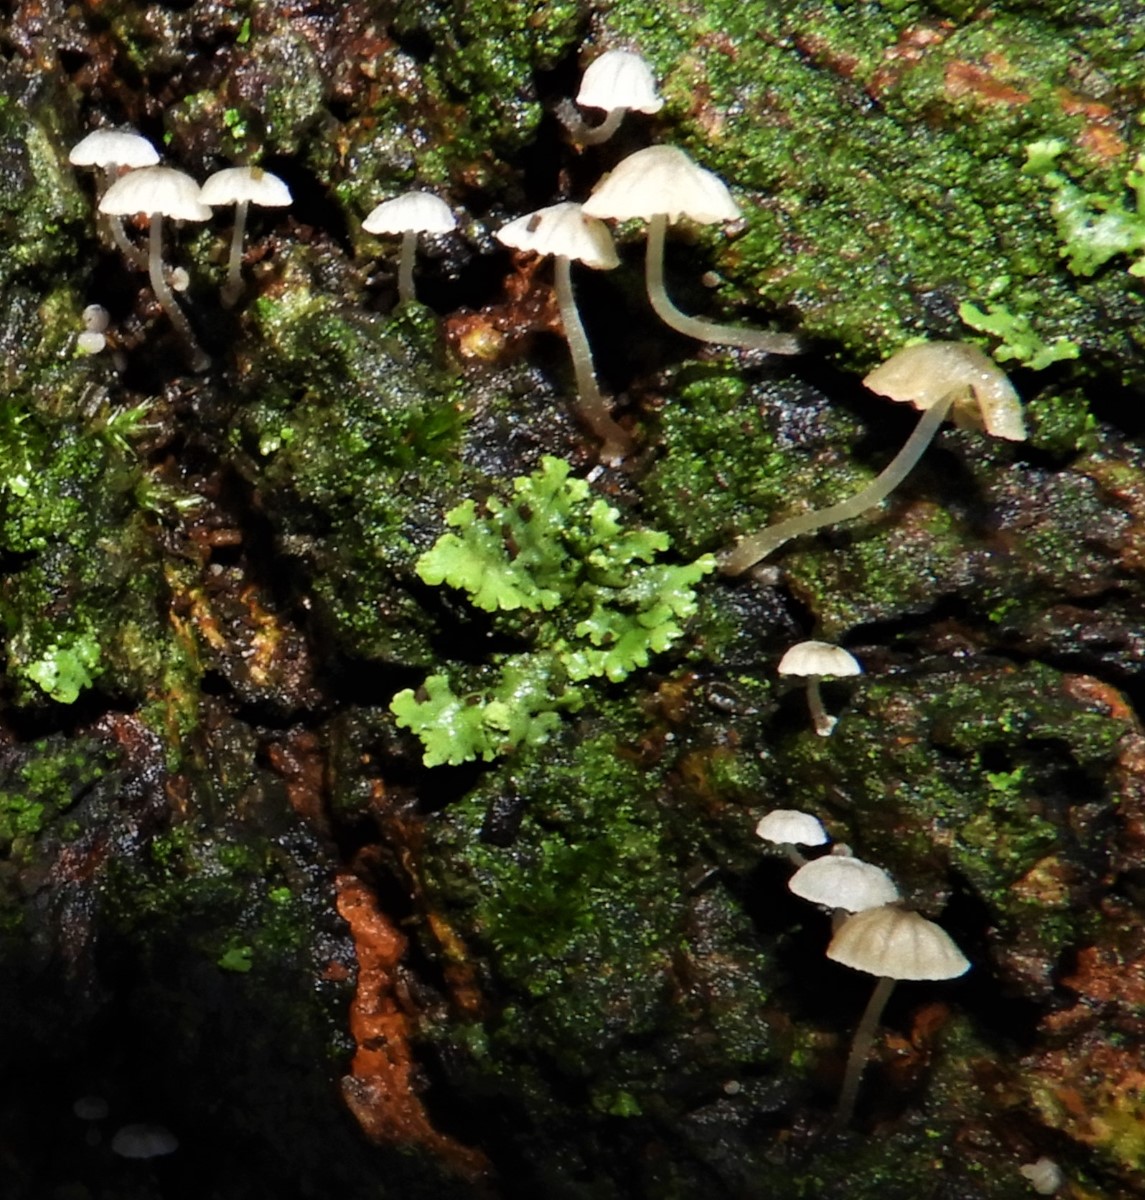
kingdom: Fungi
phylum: Basidiomycota
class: Agaricomycetes
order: Agaricales
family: Porotheleaceae
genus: Phloeomana
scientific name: Phloeomana hiemalis
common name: sen huesvamp
